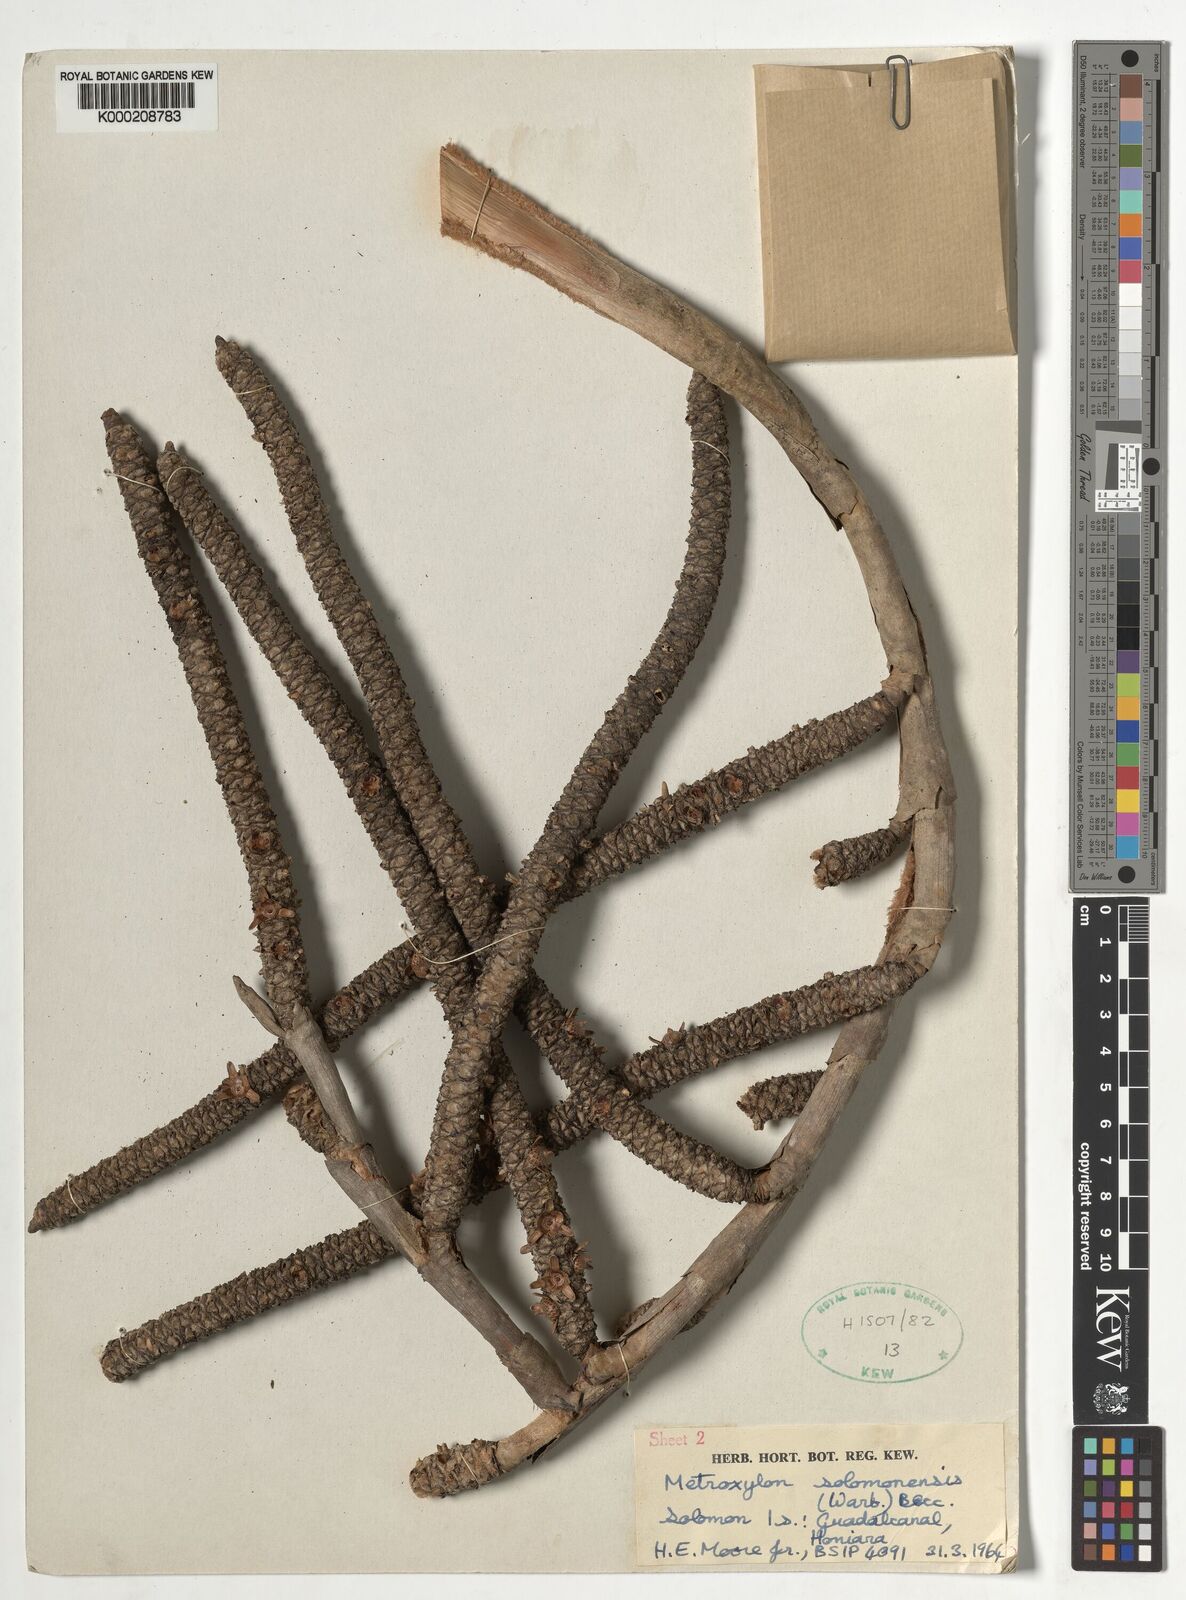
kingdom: Plantae
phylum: Tracheophyta
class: Liliopsida
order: Arecales
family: Arecaceae
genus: Metroxylon
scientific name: Metroxylon salomonense
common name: Solomon's sago palm
